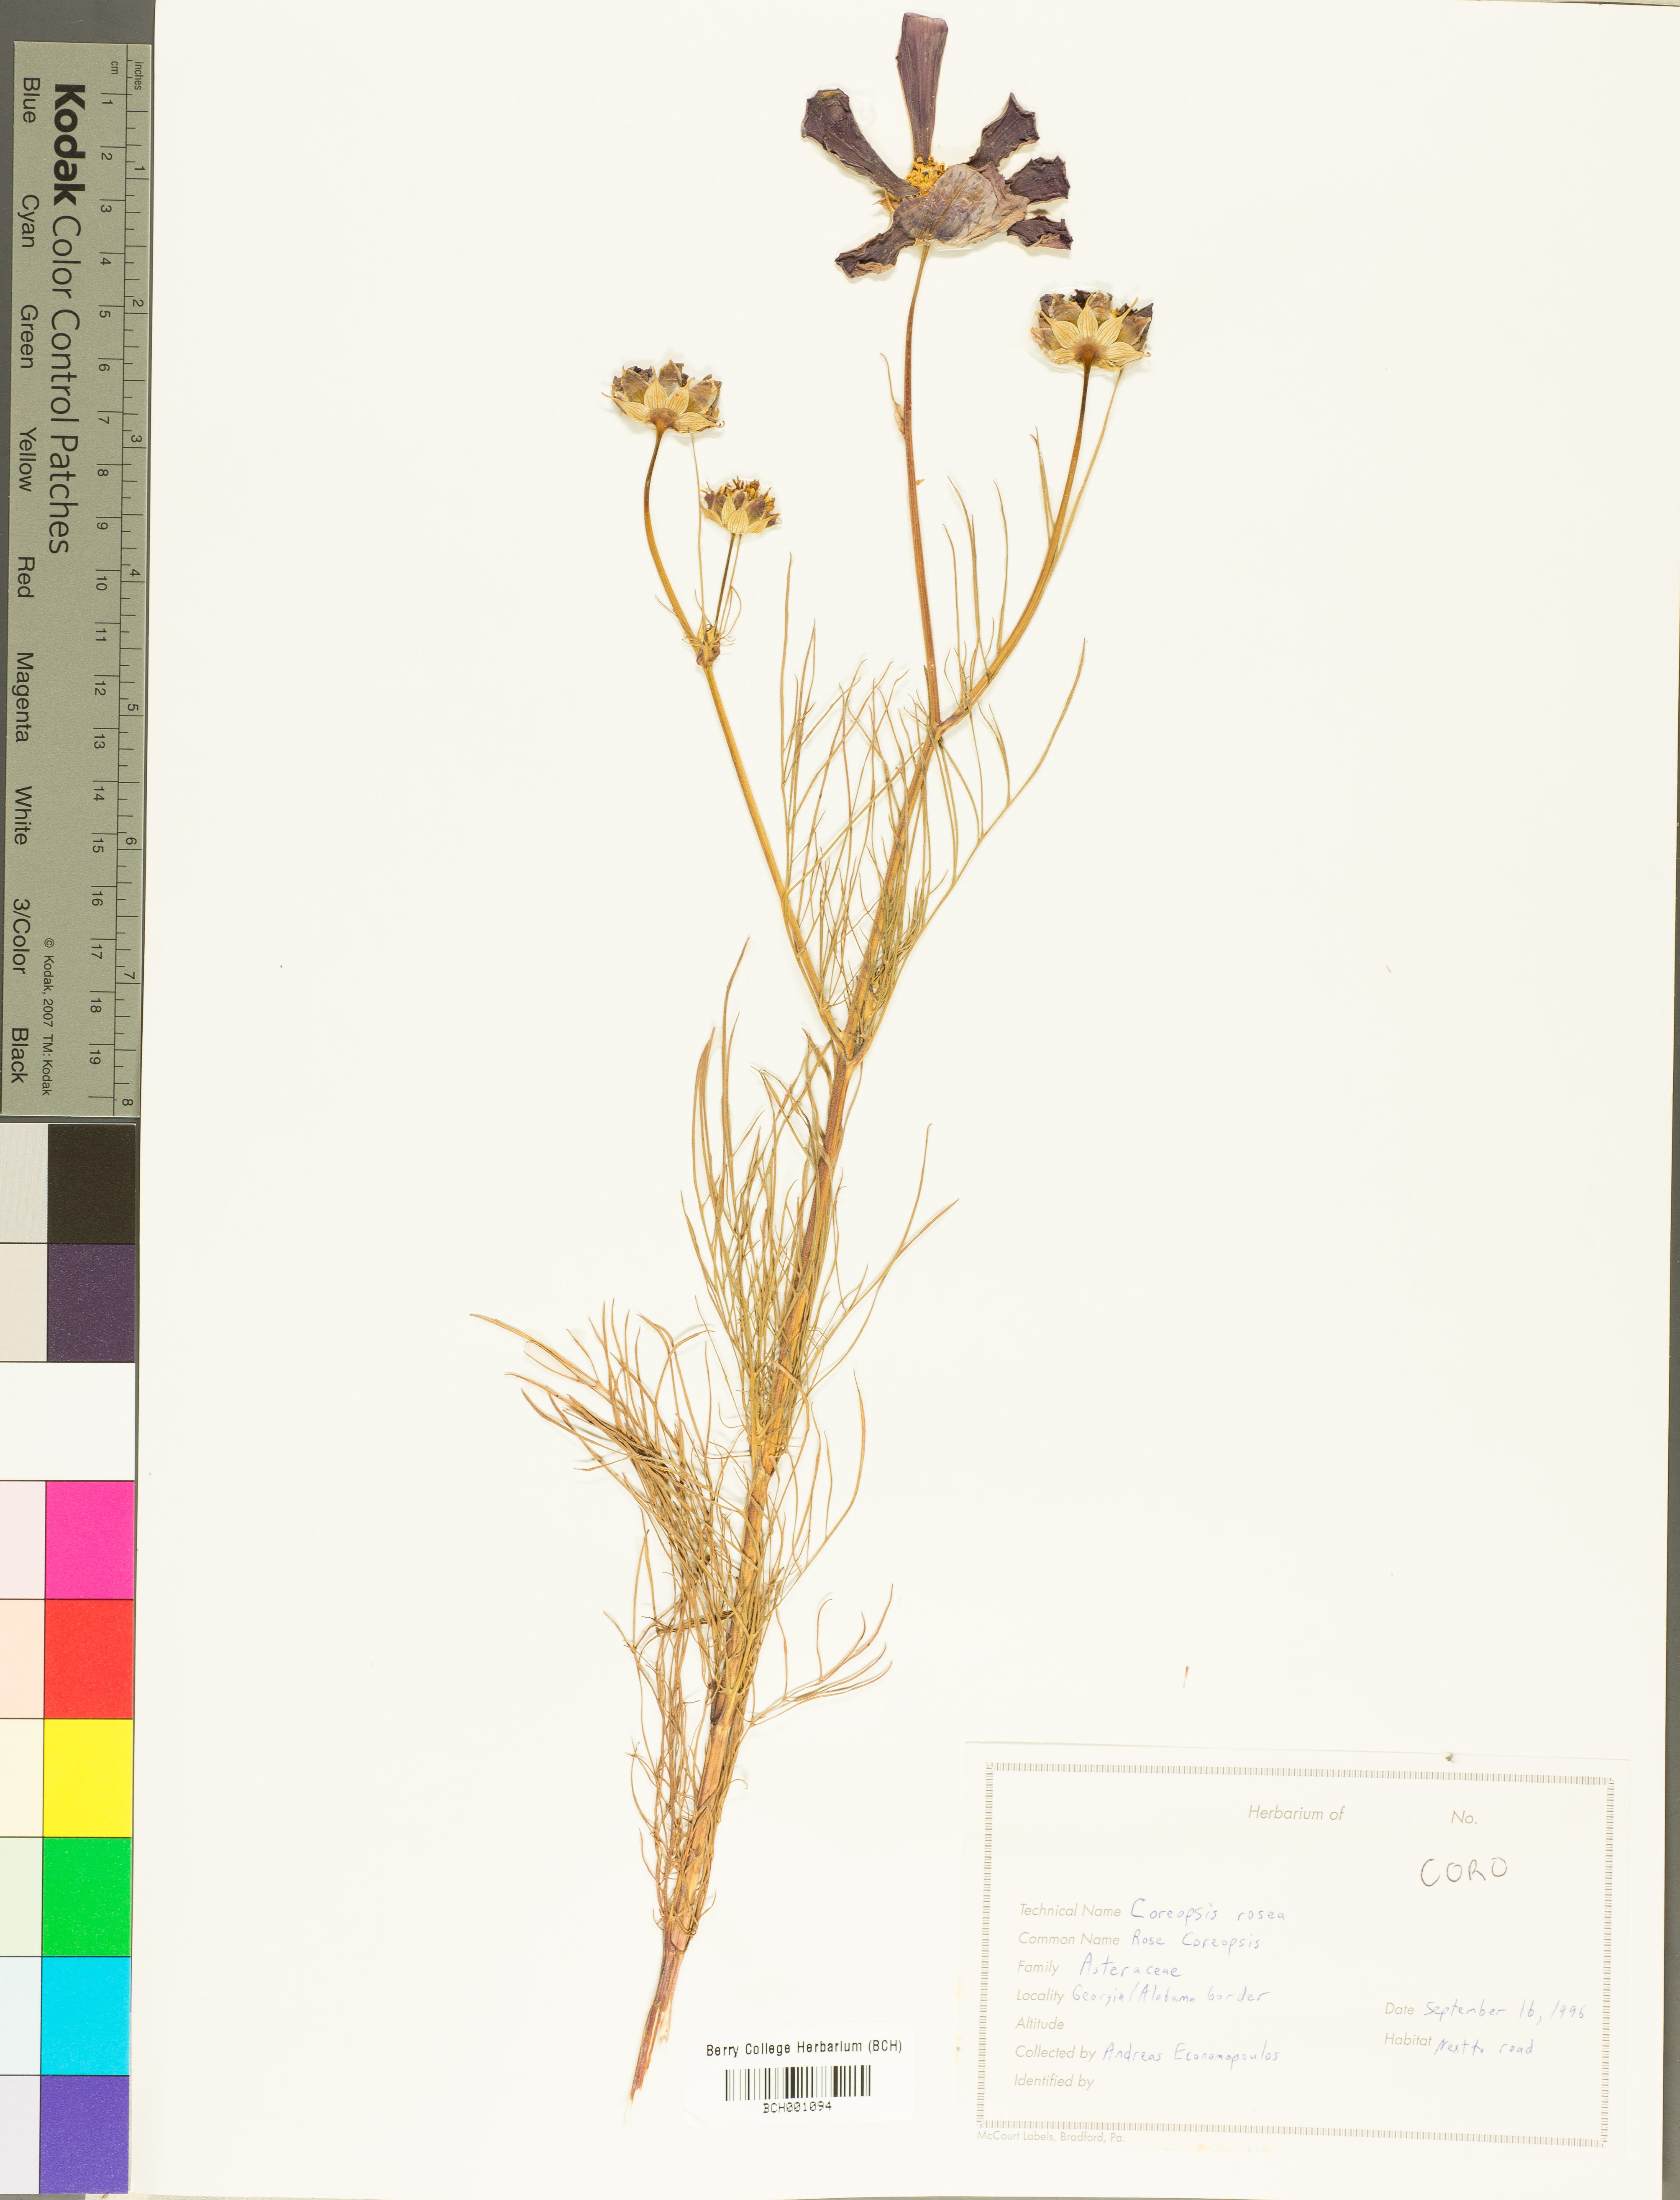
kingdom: Plantae
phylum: Tracheophyta
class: Magnoliopsida
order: Asterales
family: Asteraceae
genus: Coreopsis
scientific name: Coreopsis rosea
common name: Pink coreopsis
